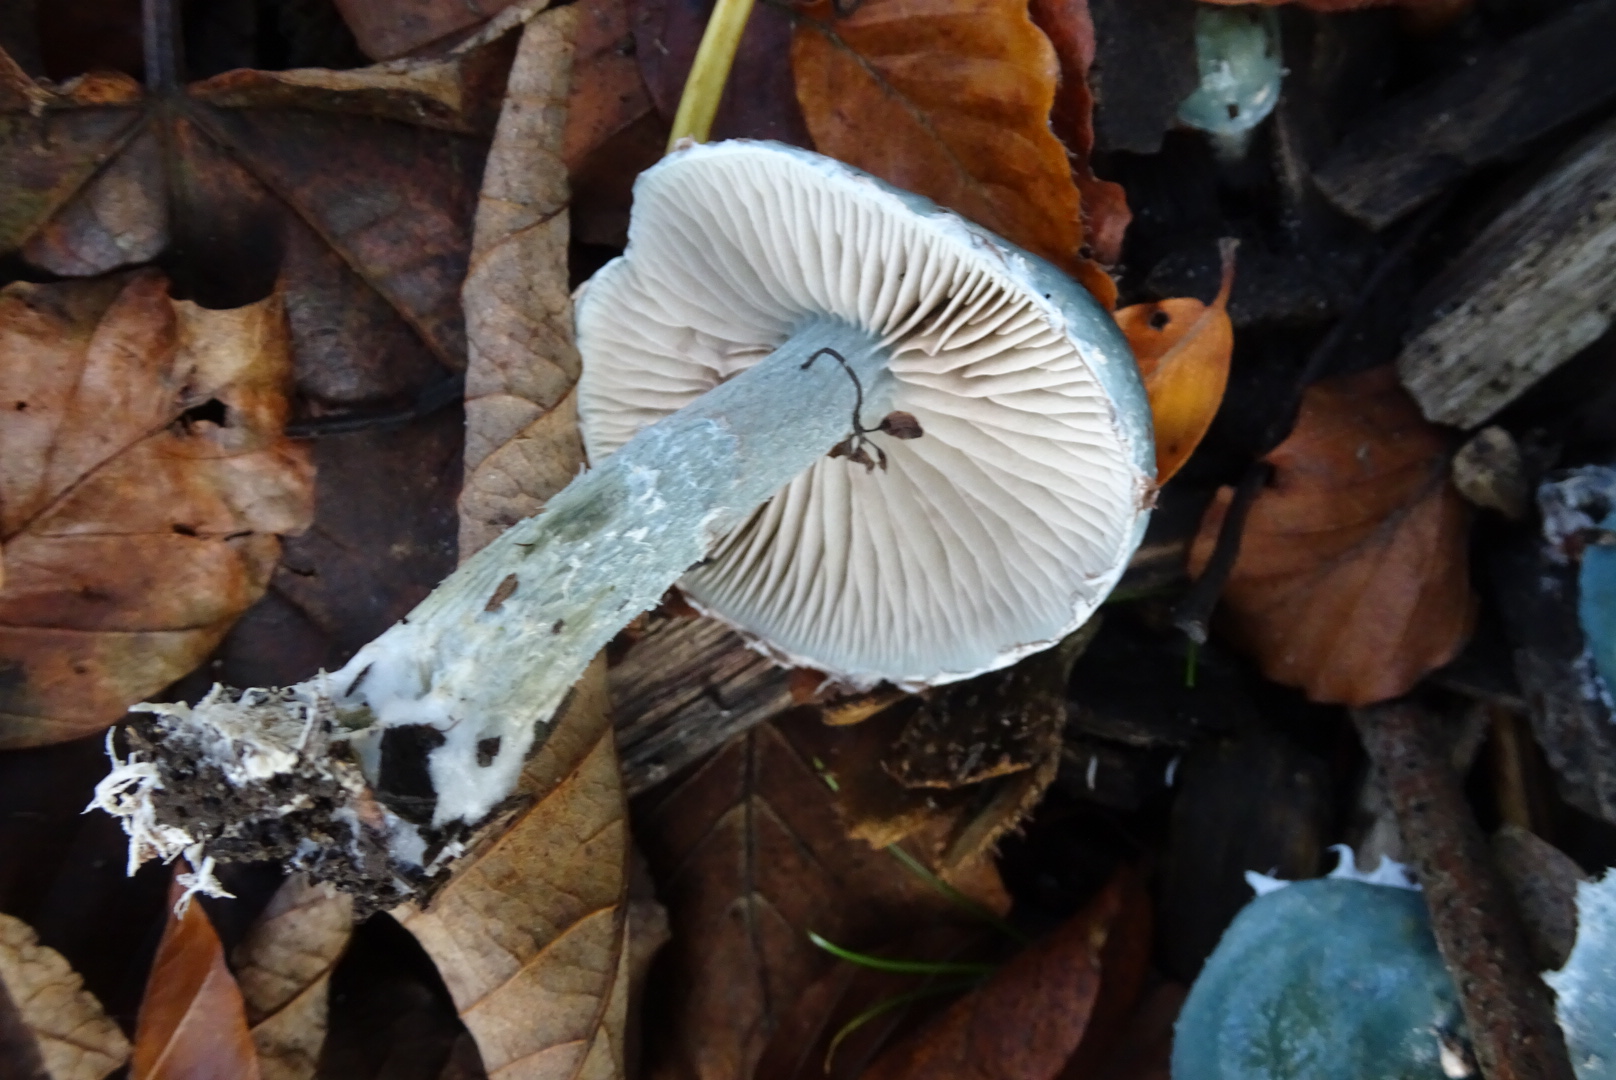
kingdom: Fungi
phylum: Basidiomycota
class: Agaricomycetes
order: Agaricales
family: Strophariaceae
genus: Stropharia
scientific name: Stropharia cyanea
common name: blågrøn bredblad
